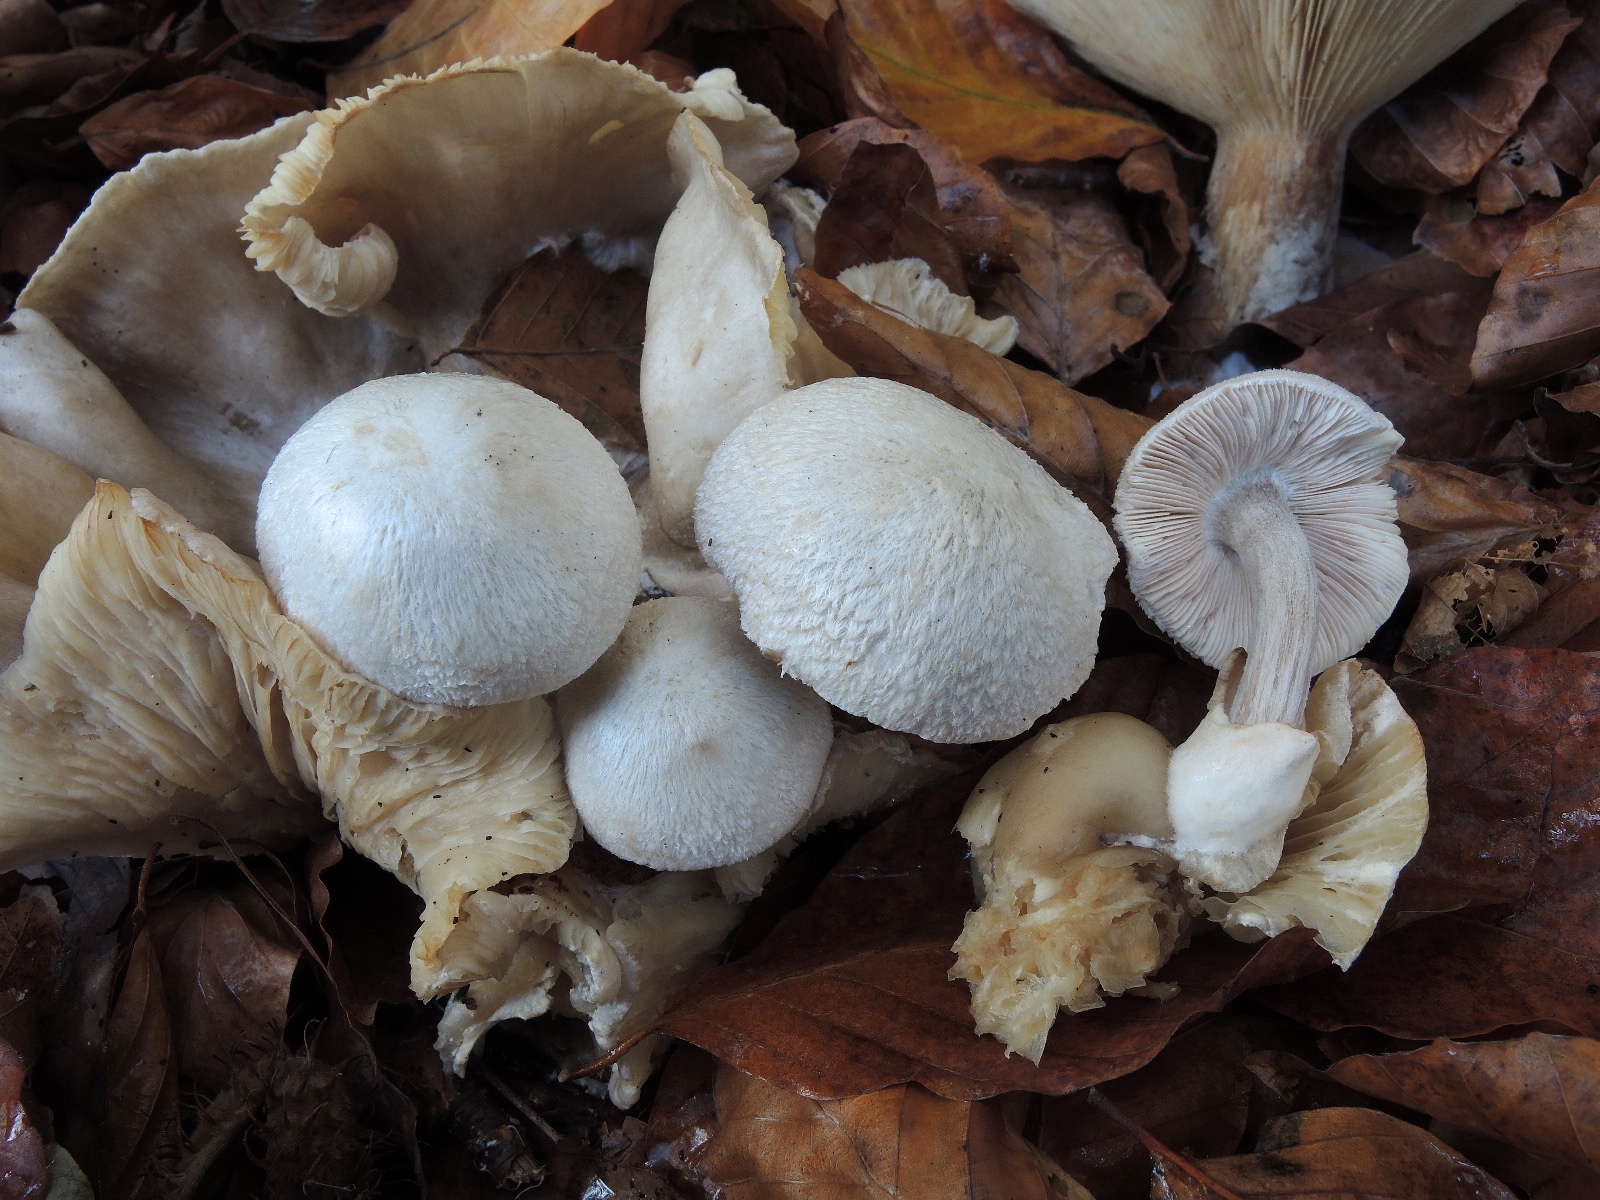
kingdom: Fungi
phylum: Basidiomycota
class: Agaricomycetes
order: Agaricales
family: Pluteaceae
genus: Volvariella
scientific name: Volvariella surrecta
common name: snyltende posesvamp
